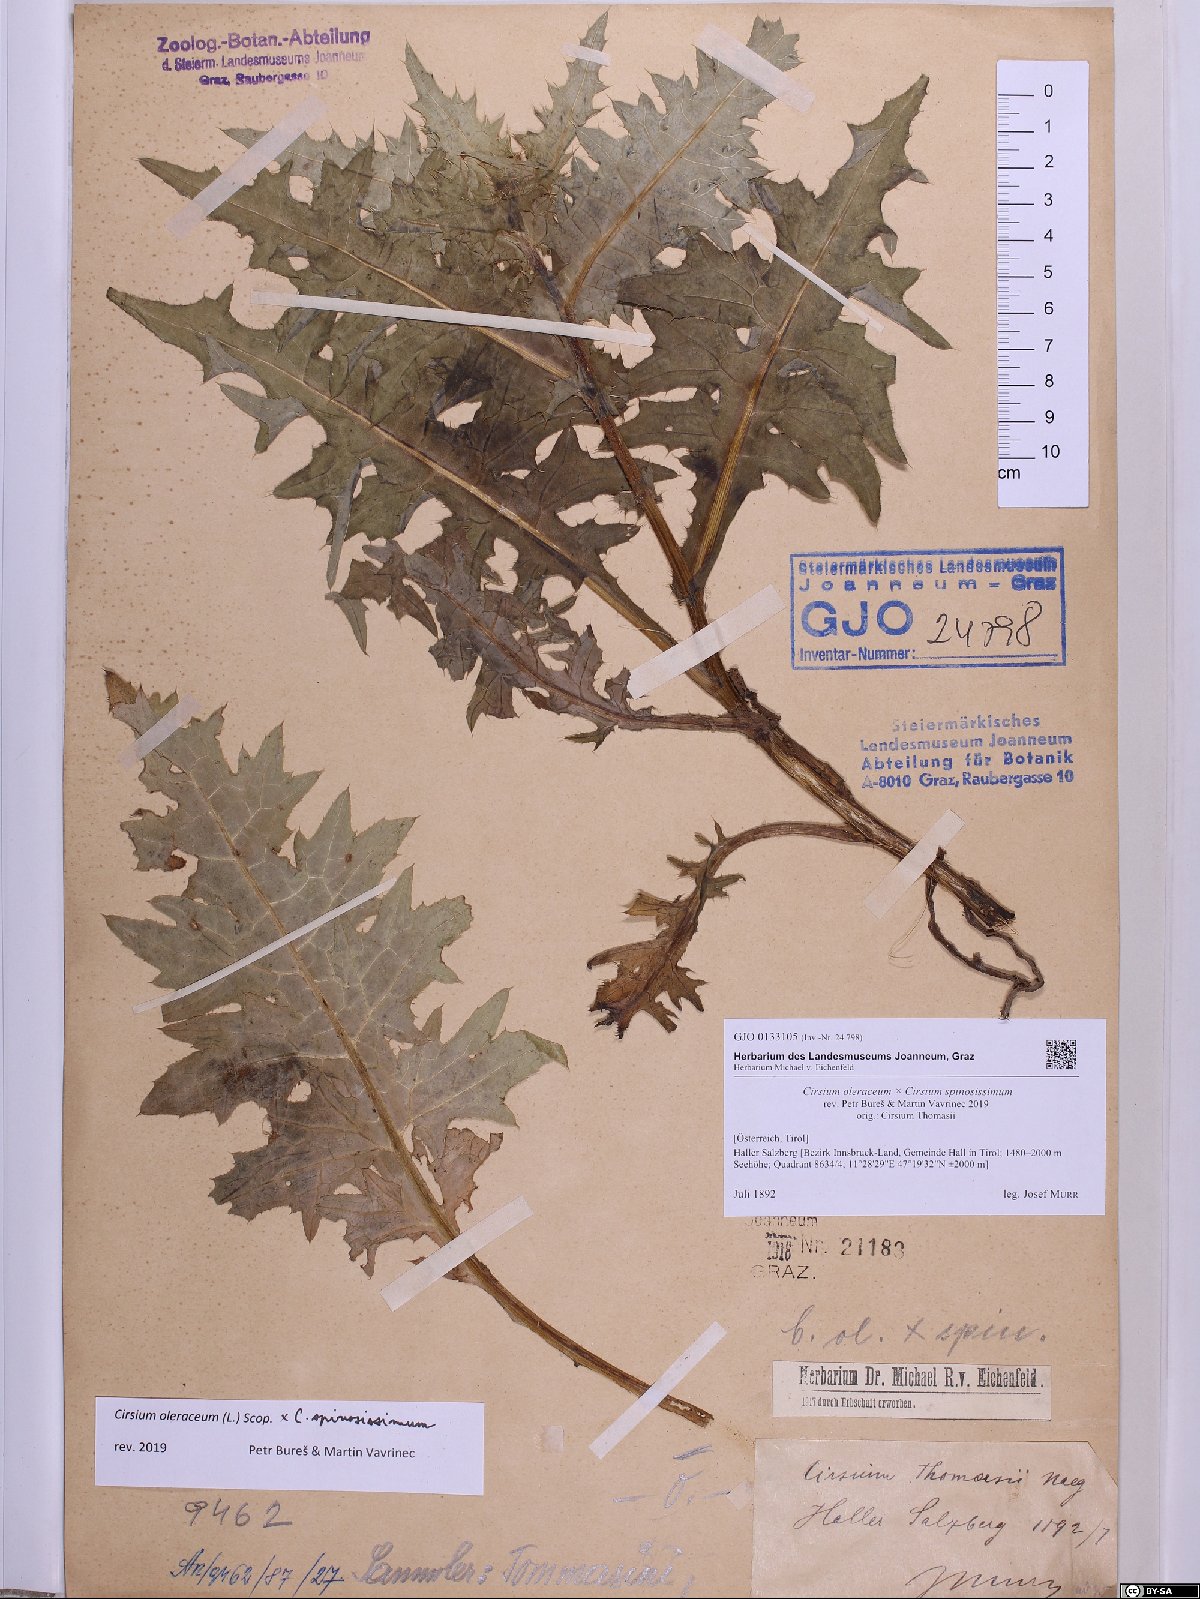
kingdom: Plantae
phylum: Tracheophyta
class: Magnoliopsida
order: Asterales
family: Asteraceae
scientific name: Asteraceae
